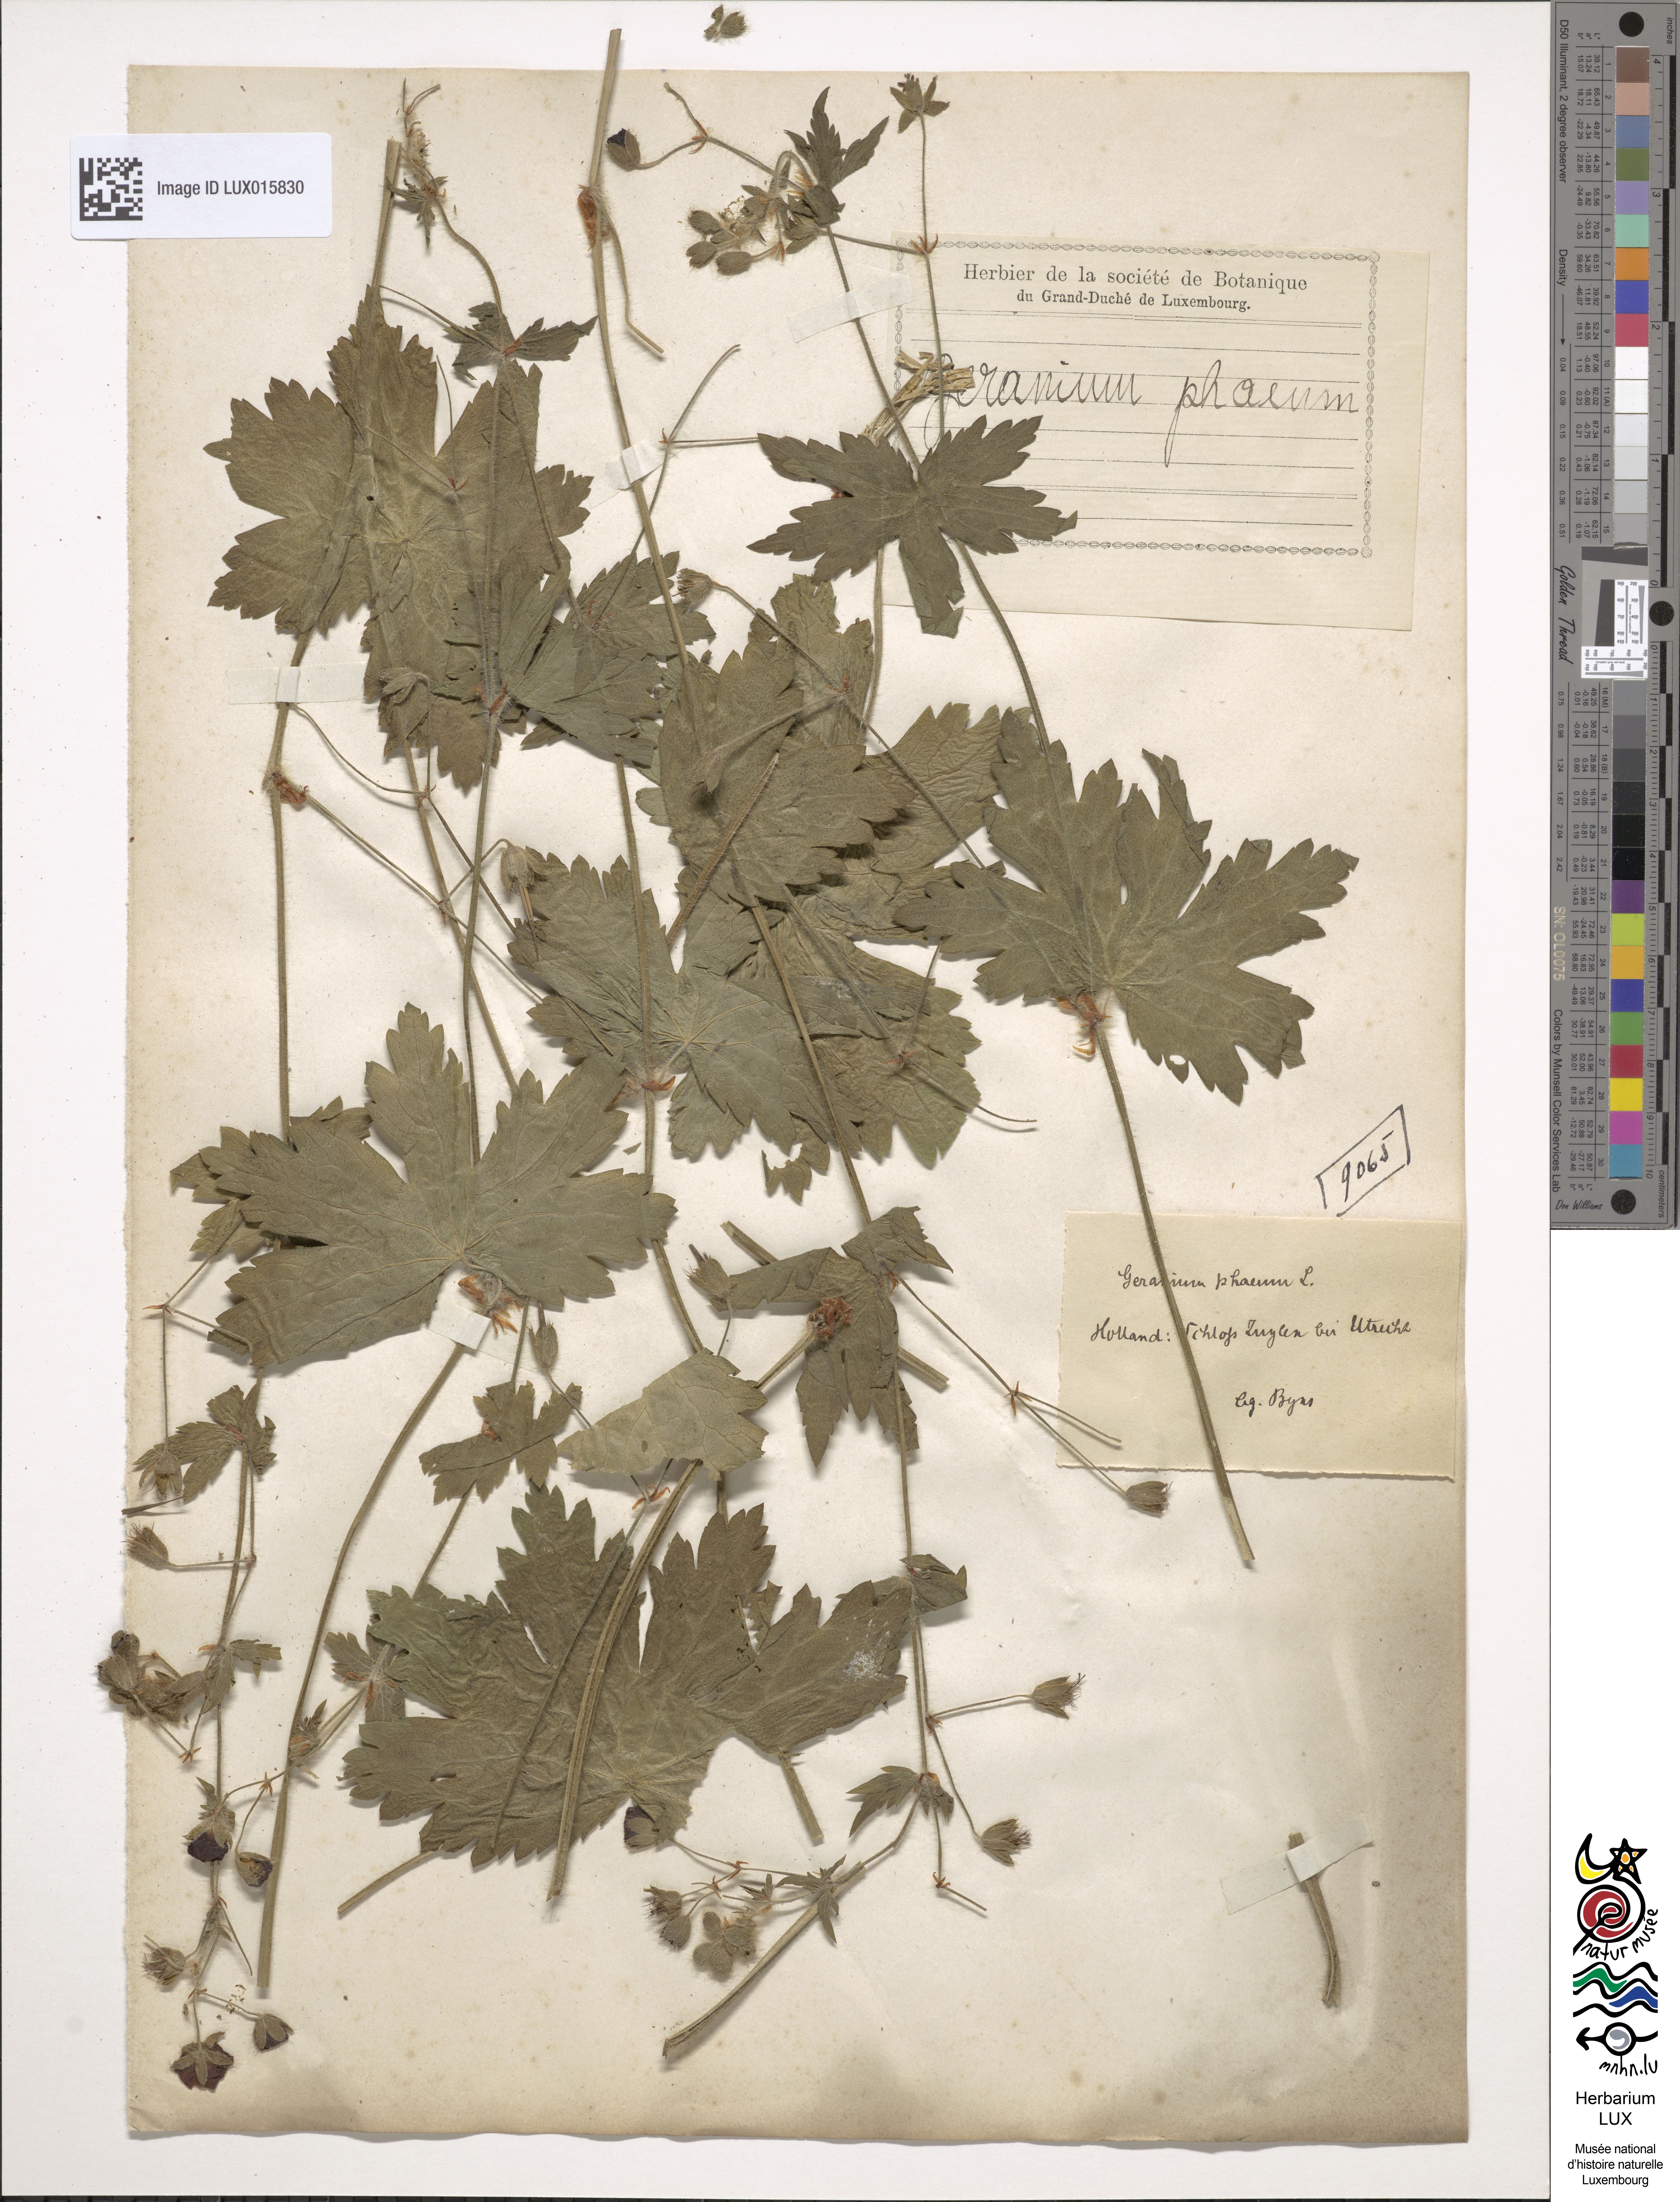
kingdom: Plantae
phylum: Tracheophyta
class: Magnoliopsida
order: Geraniales
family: Geraniaceae
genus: Geranium
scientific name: Geranium phaeum
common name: Dusky crane's-bill
